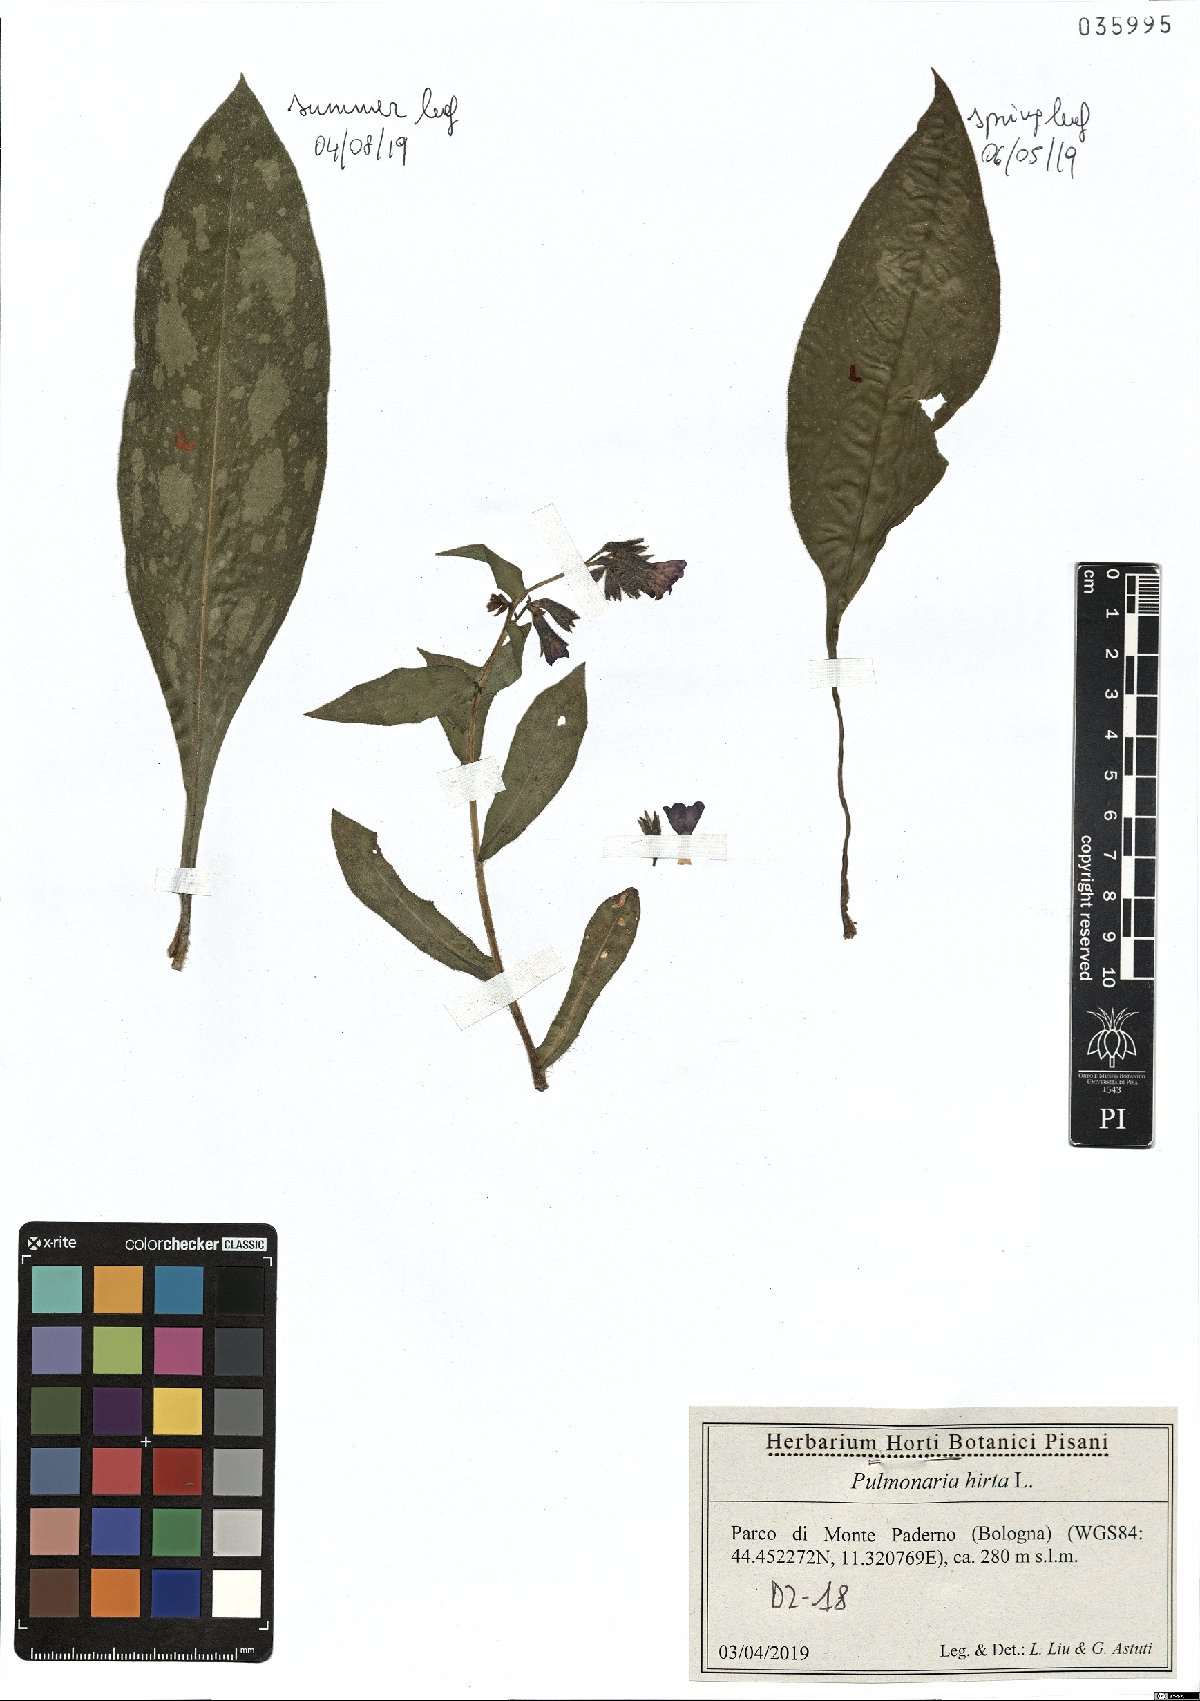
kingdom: Plantae
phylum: Tracheophyta
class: Magnoliopsida
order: Boraginales
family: Boraginaceae
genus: Pulmonaria
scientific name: Pulmonaria hirta
